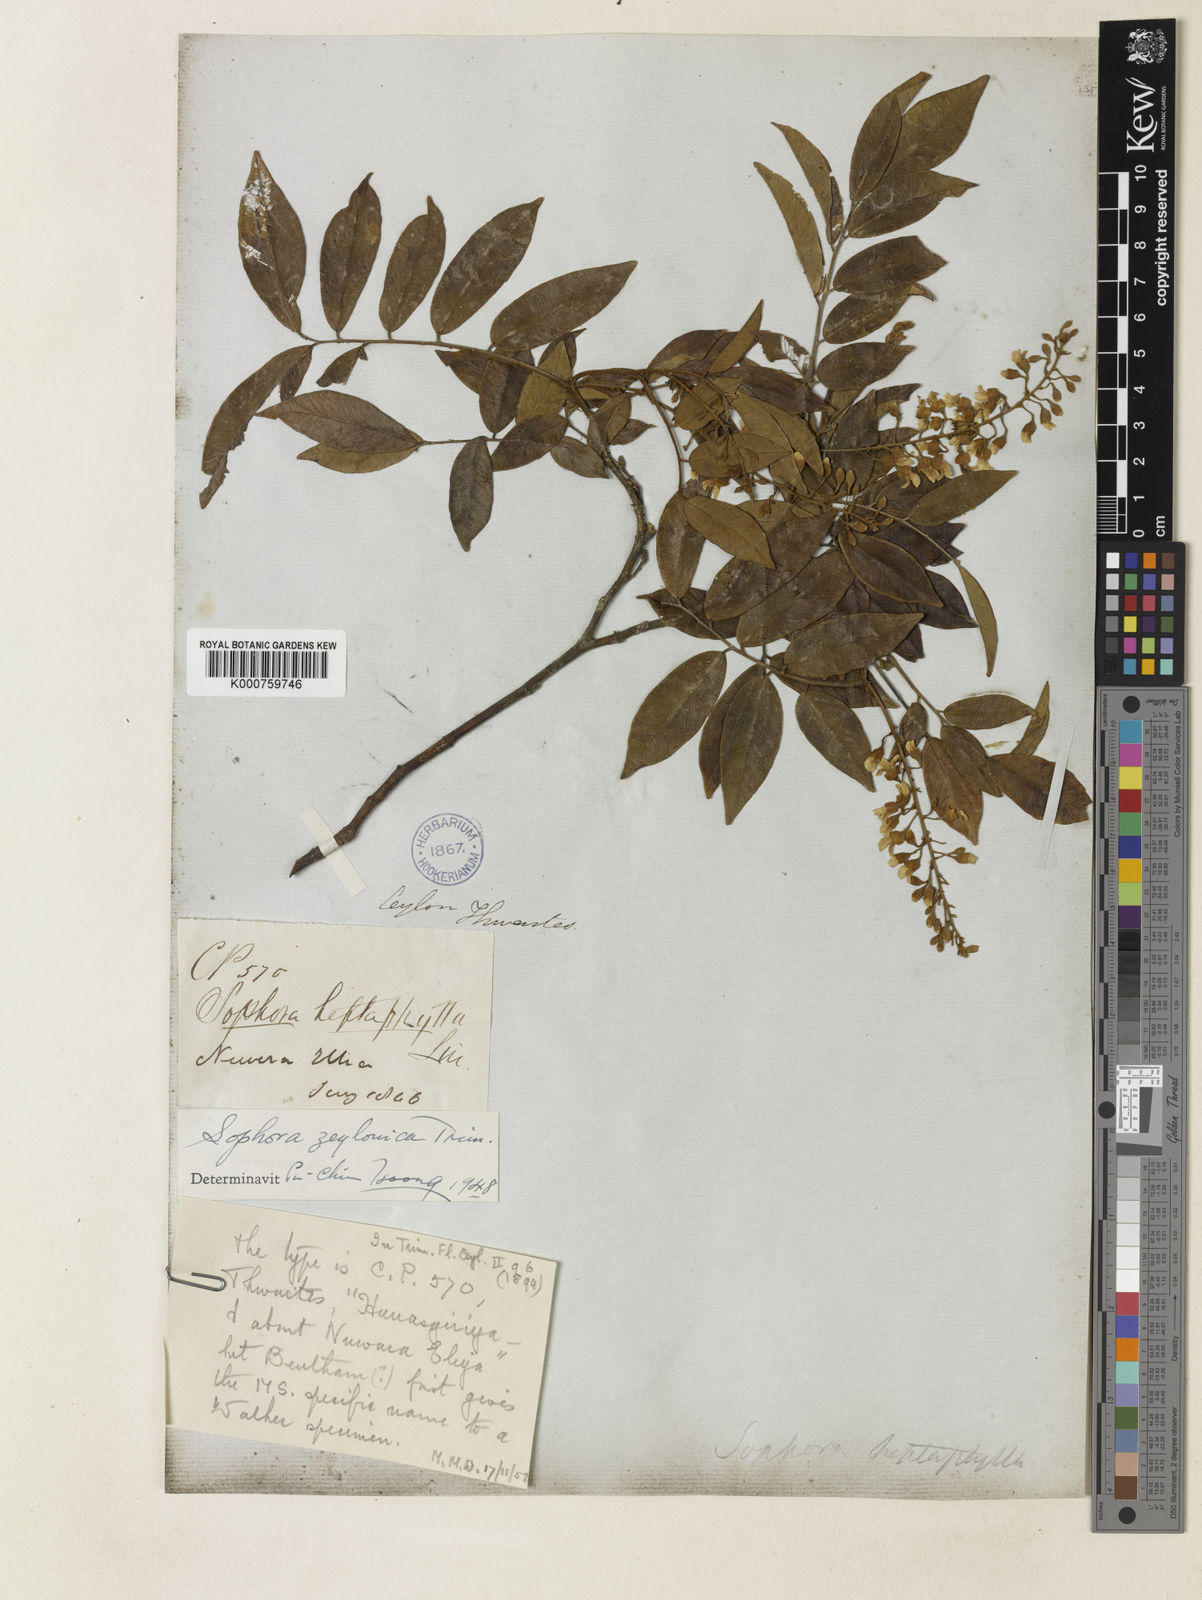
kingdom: Plantae
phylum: Tracheophyta
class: Magnoliopsida
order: Fabales
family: Fabaceae
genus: Sophora
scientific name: Sophora zeylanica
